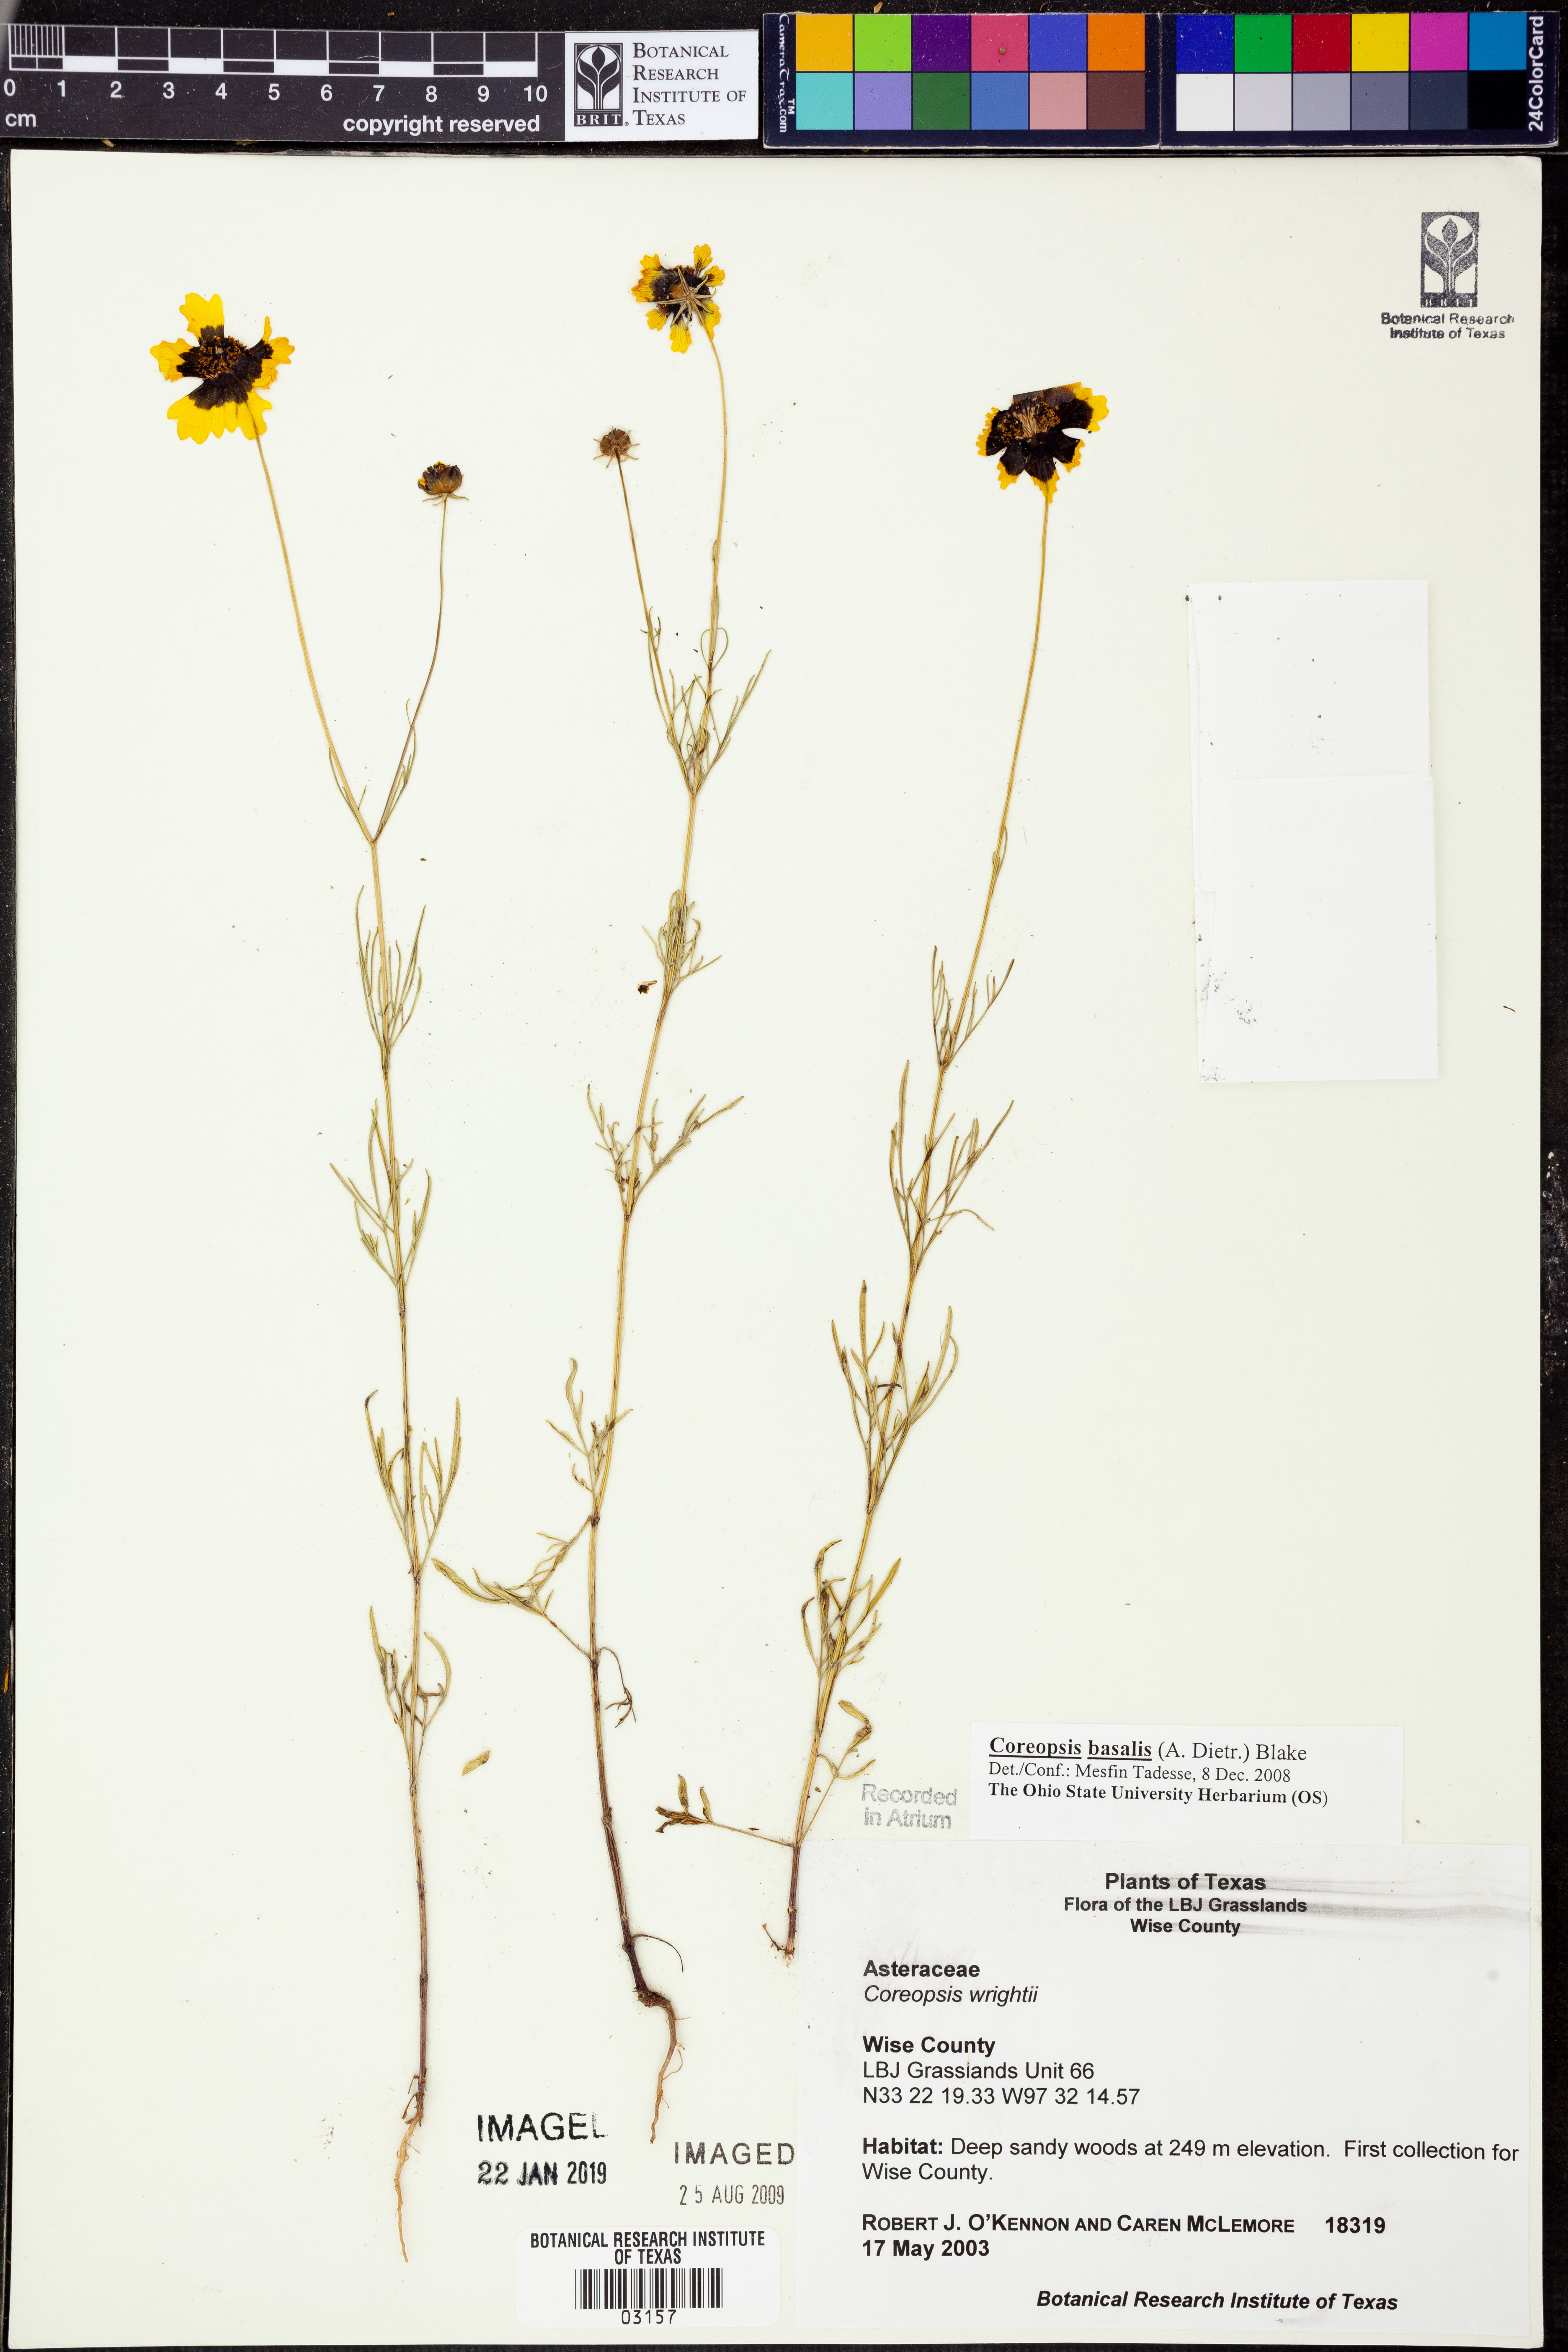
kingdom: Plantae
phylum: Tracheophyta
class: Magnoliopsida
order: Asterales
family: Asteraceae
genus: Coreopsis
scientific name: Coreopsis basalis
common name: Golden-mane coreopsis
